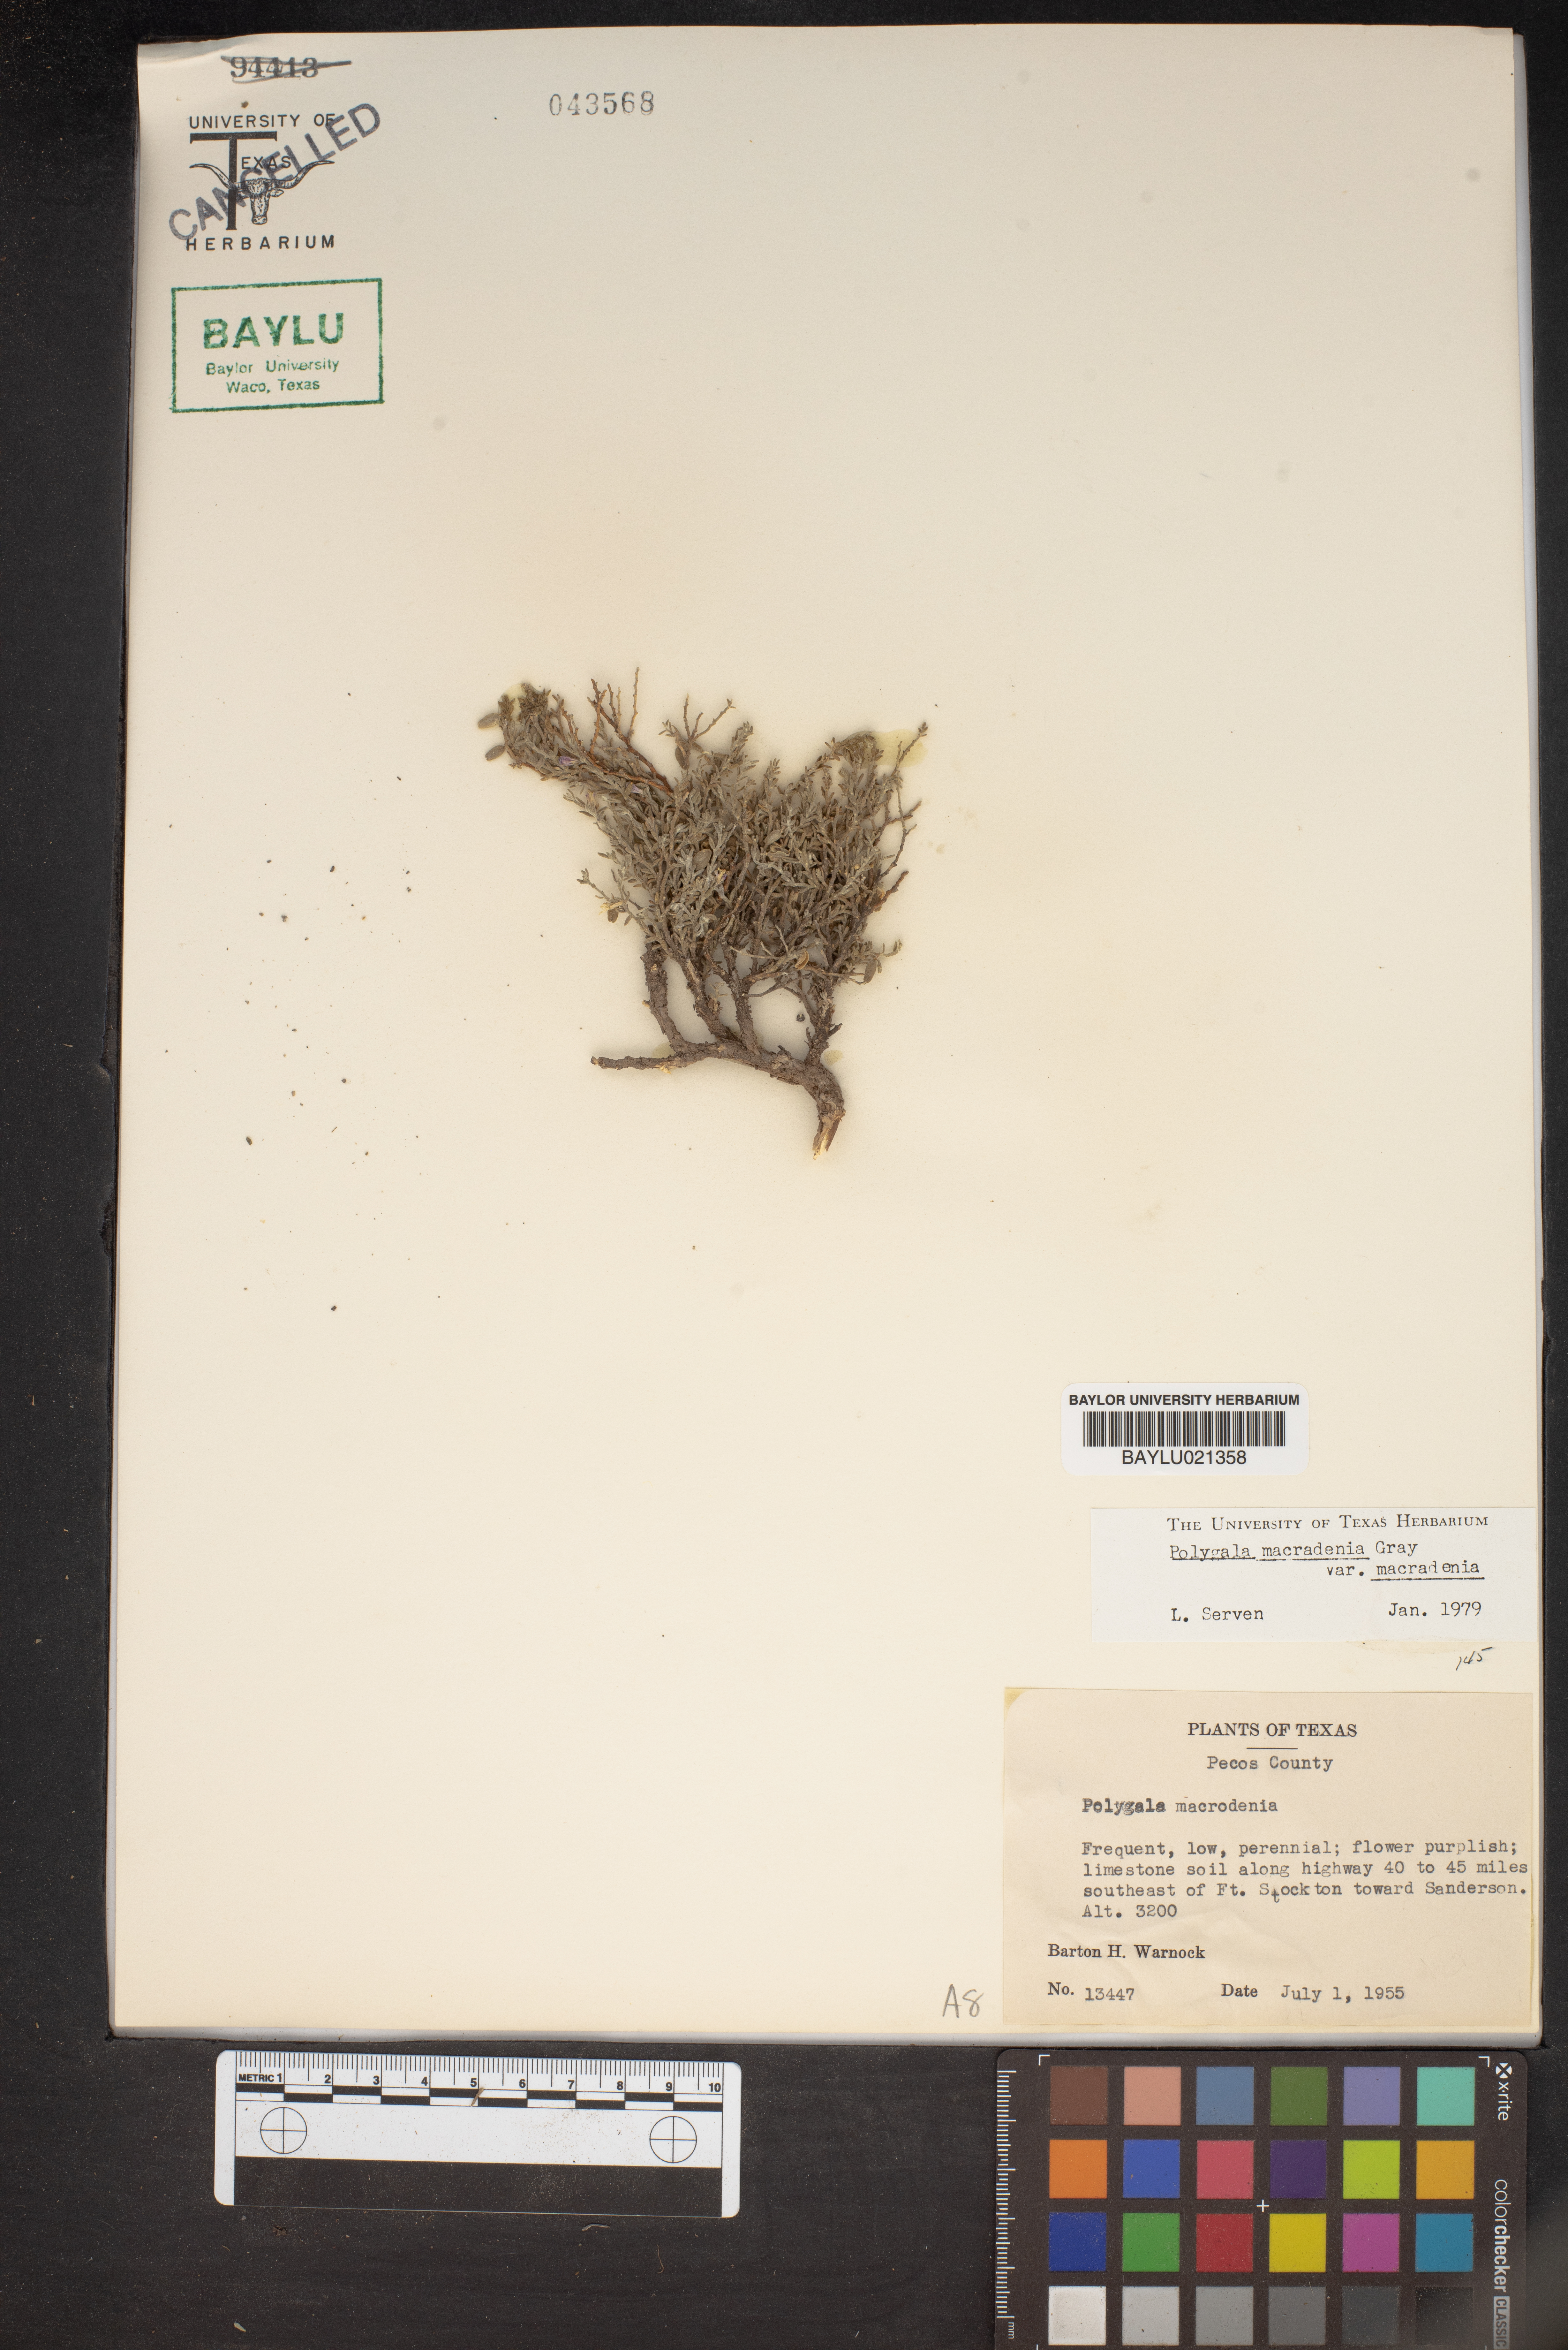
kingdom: Plantae
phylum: Tracheophyta
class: Magnoliopsida
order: Fabales
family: Polygalaceae
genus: Hebecarpa
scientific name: Hebecarpa macradenia
